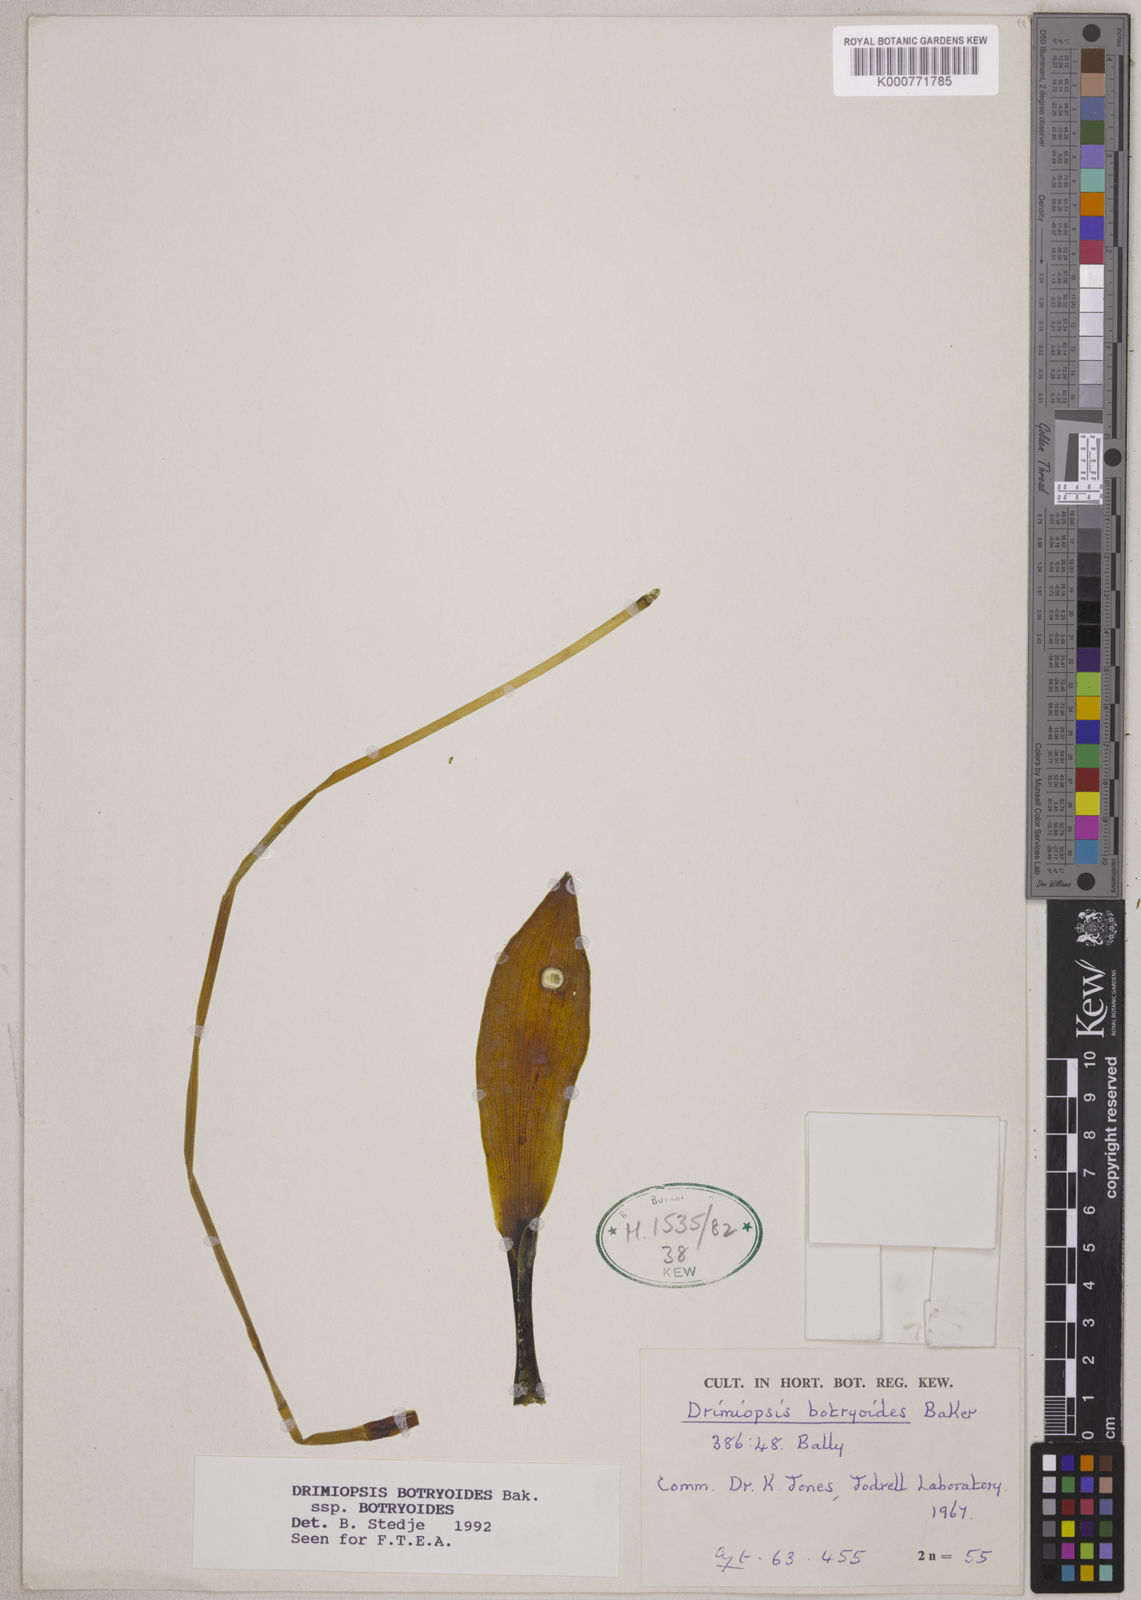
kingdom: Plantae
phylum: Tracheophyta
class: Liliopsida
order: Asparagales
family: Asparagaceae
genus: Drimiopsis
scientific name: Drimiopsis botryoides
